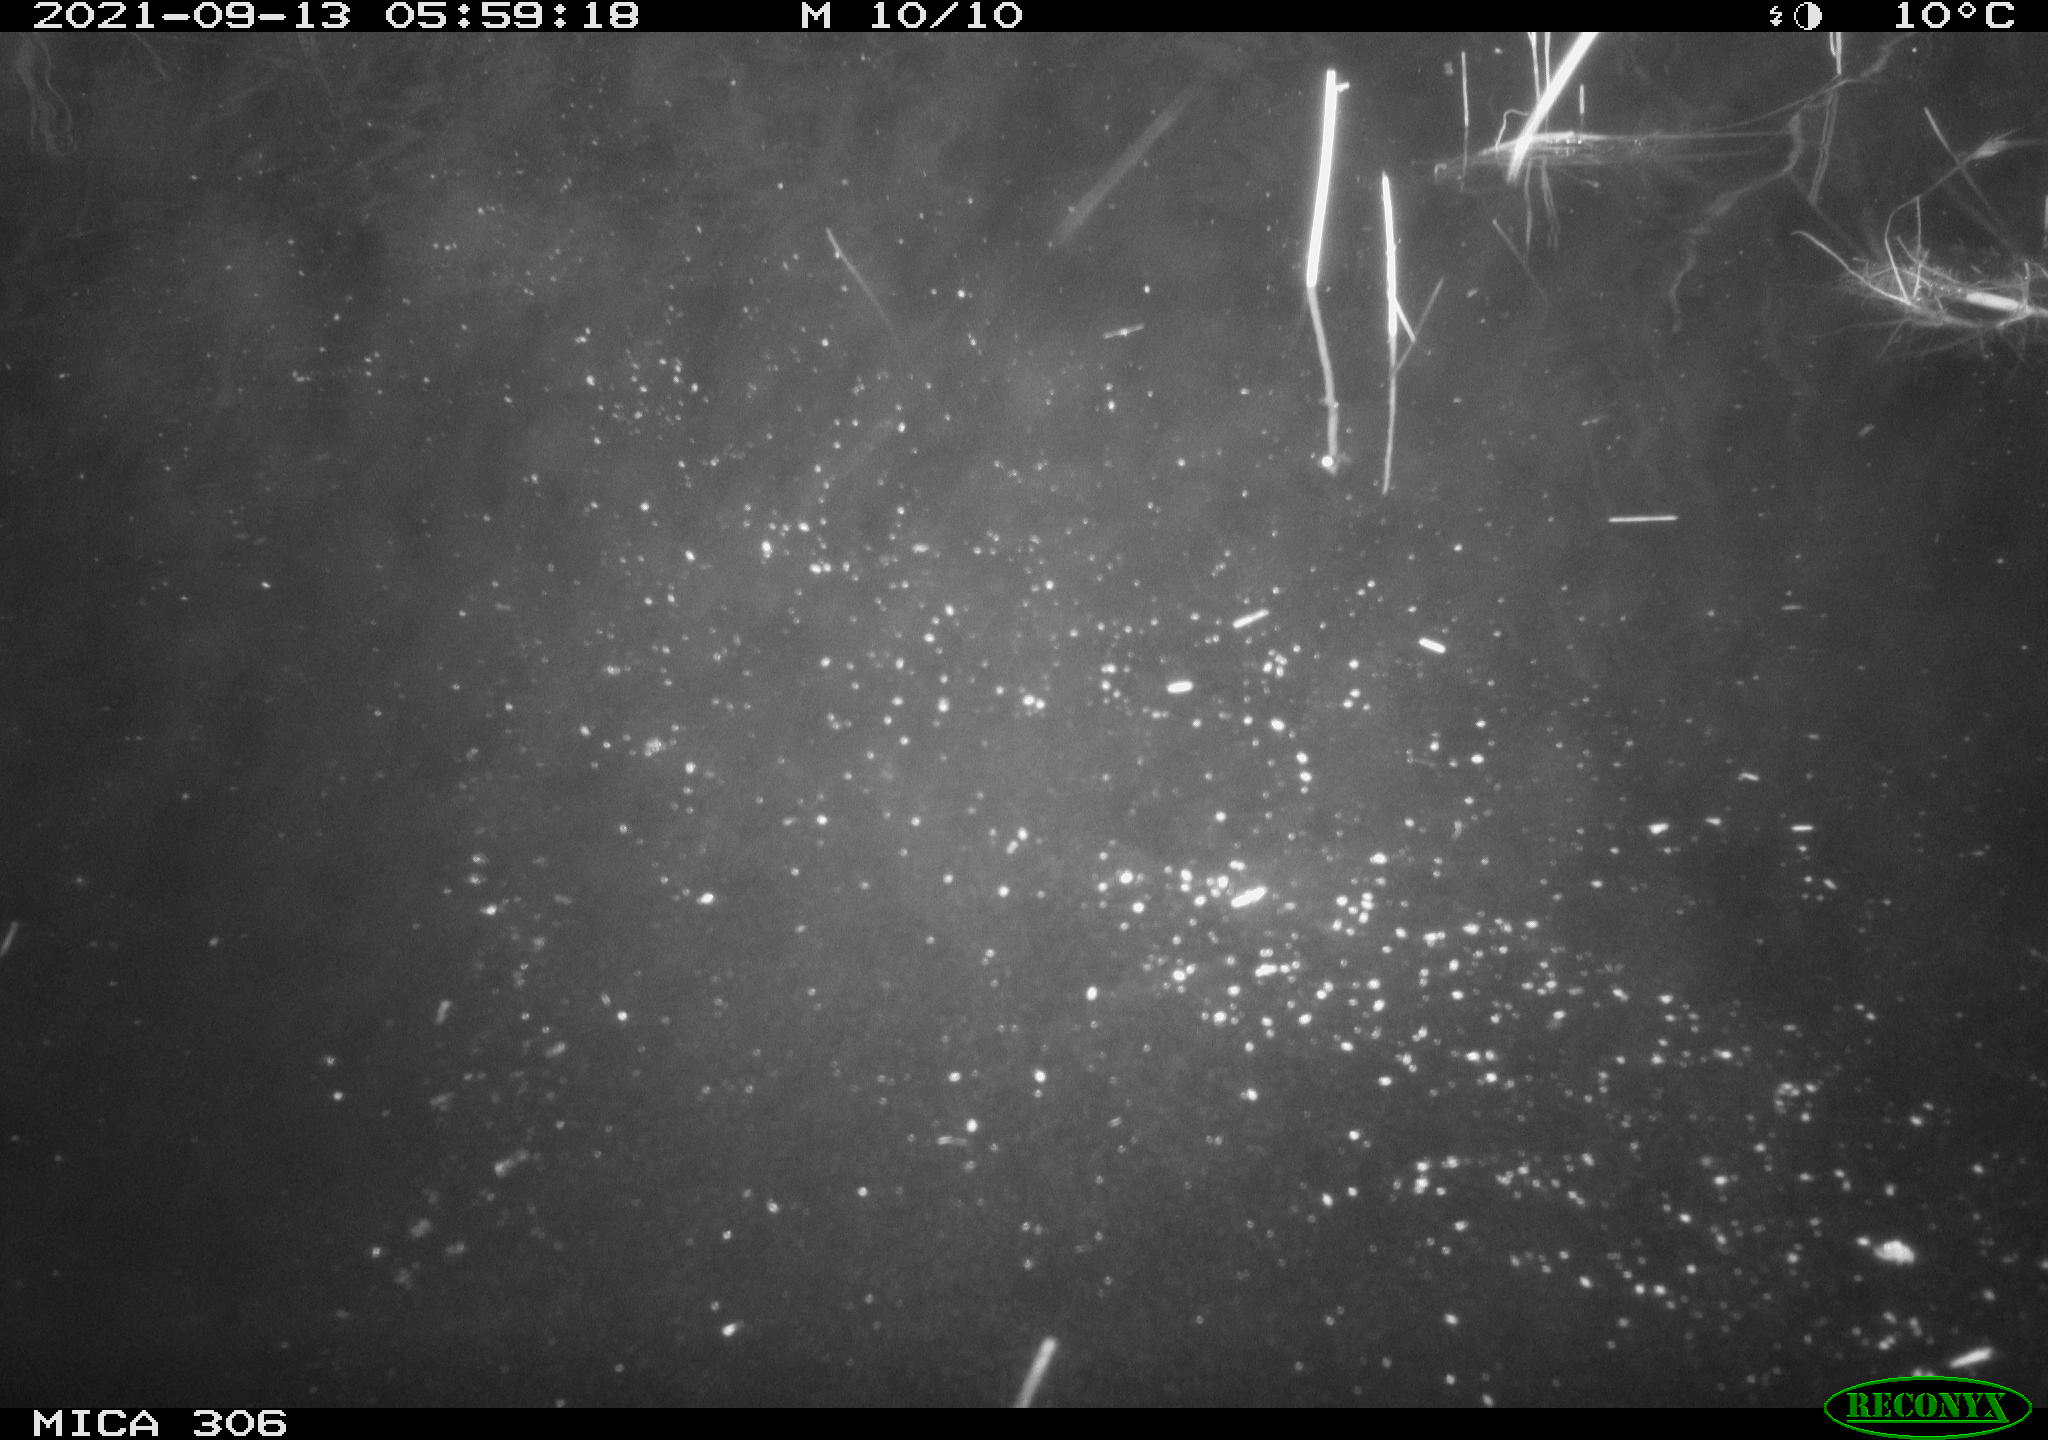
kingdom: Animalia
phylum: Chordata
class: Mammalia
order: Rodentia
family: Cricetidae
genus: Ondatra
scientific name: Ondatra zibethicus
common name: Muskrat
